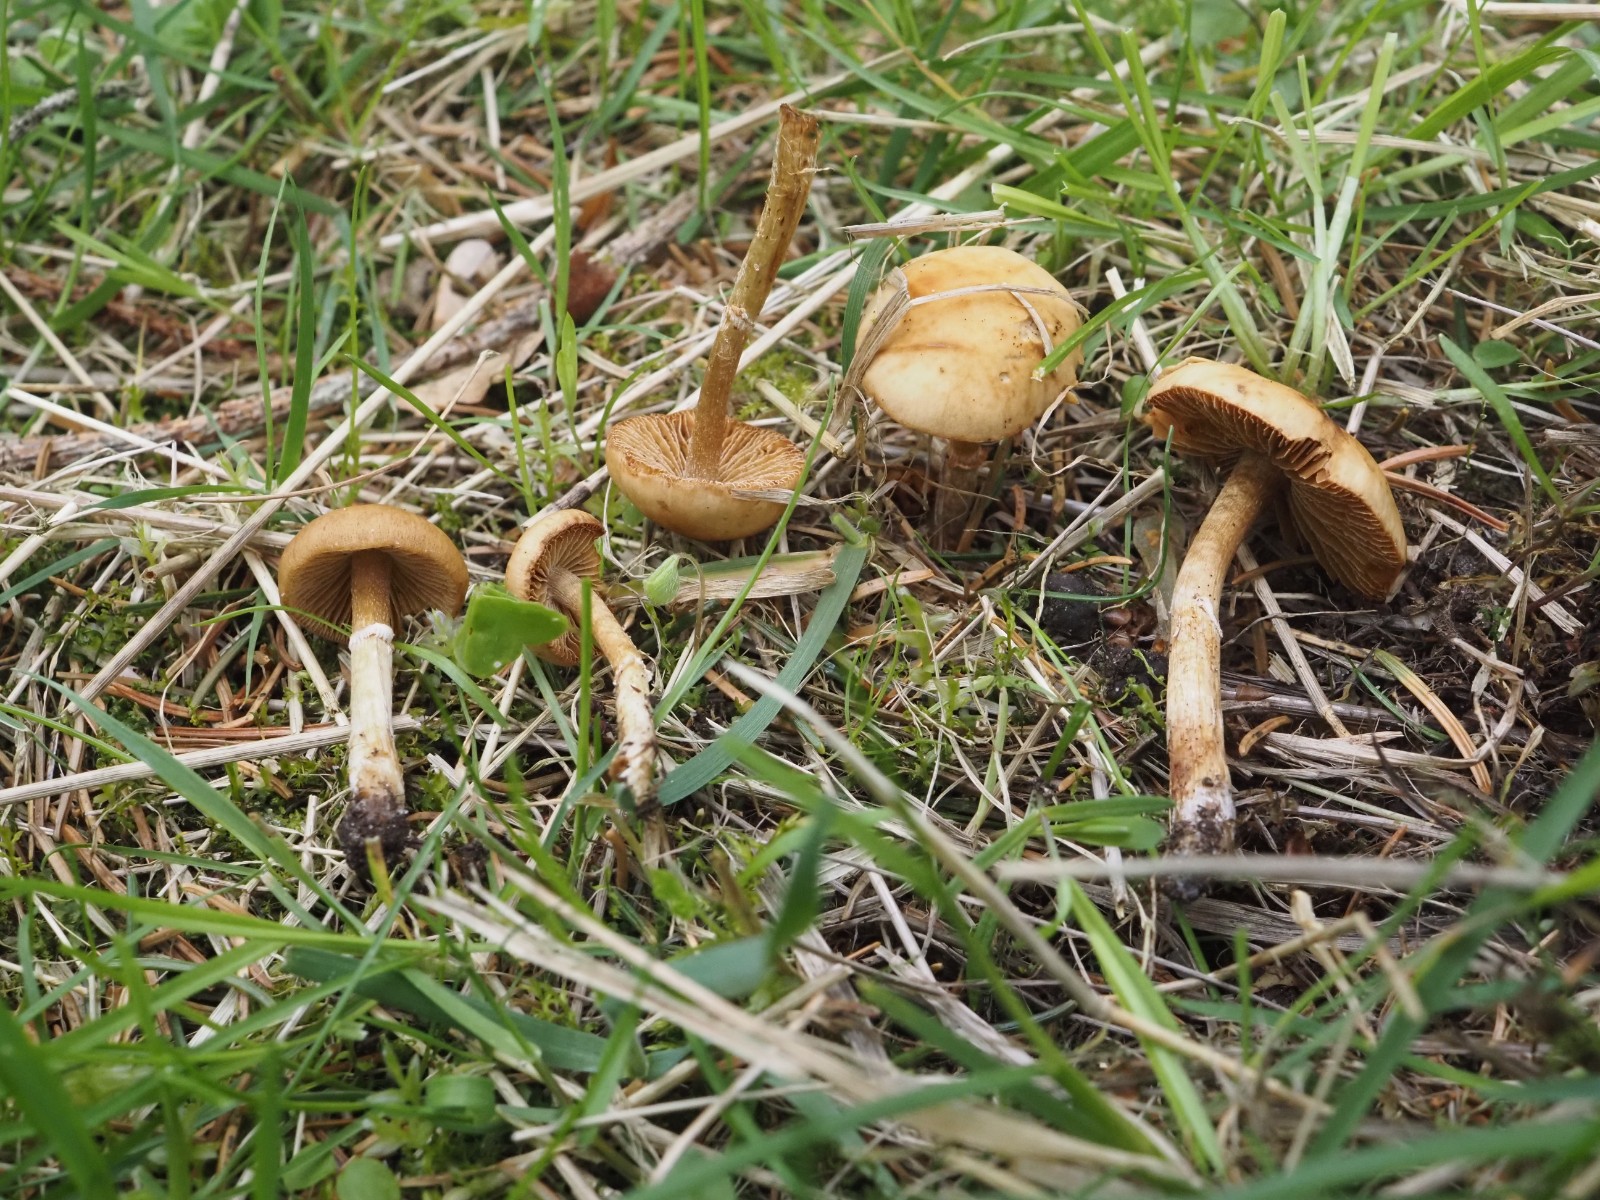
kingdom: Fungi
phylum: Basidiomycota
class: Agaricomycetes
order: Agaricales
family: Bolbitiaceae
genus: Conocybe
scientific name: Conocybe aporos
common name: tidlig dansehat
